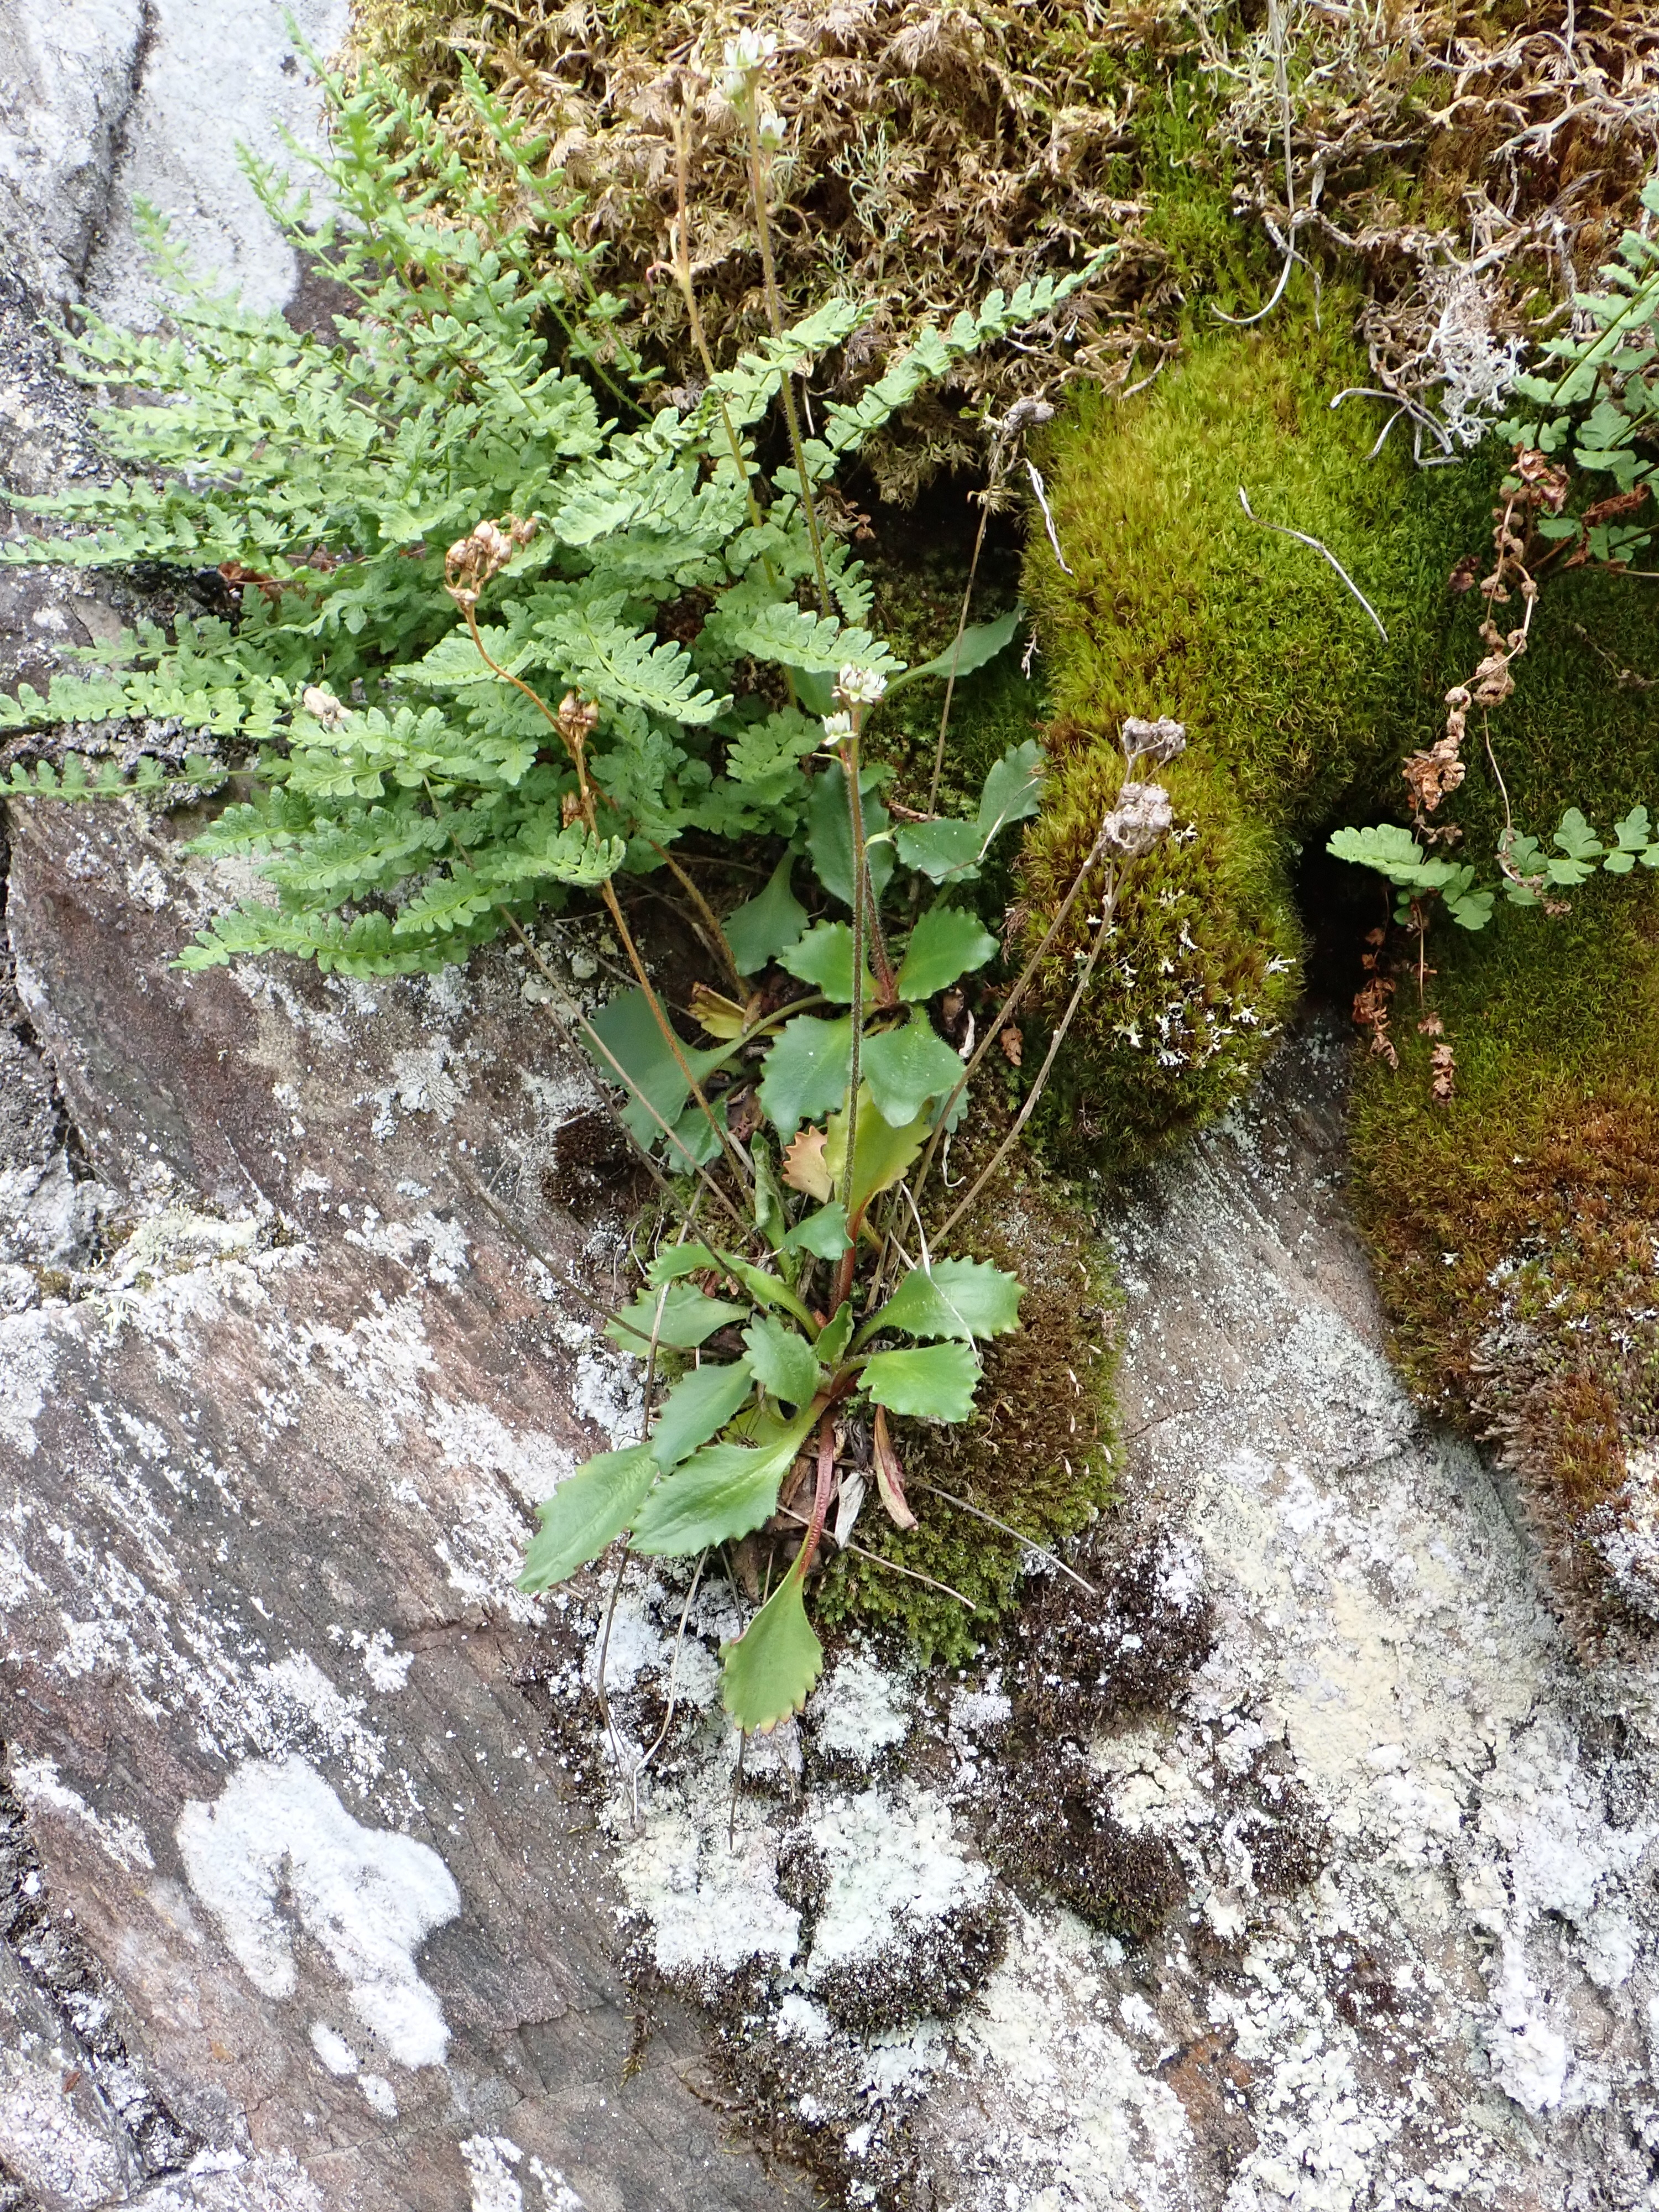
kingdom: Plantae
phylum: Tracheophyta
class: Magnoliopsida
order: Saxifragales
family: Saxifragaceae
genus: Micranthes
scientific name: Micranthes nivalis
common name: Alpine saxifrage
